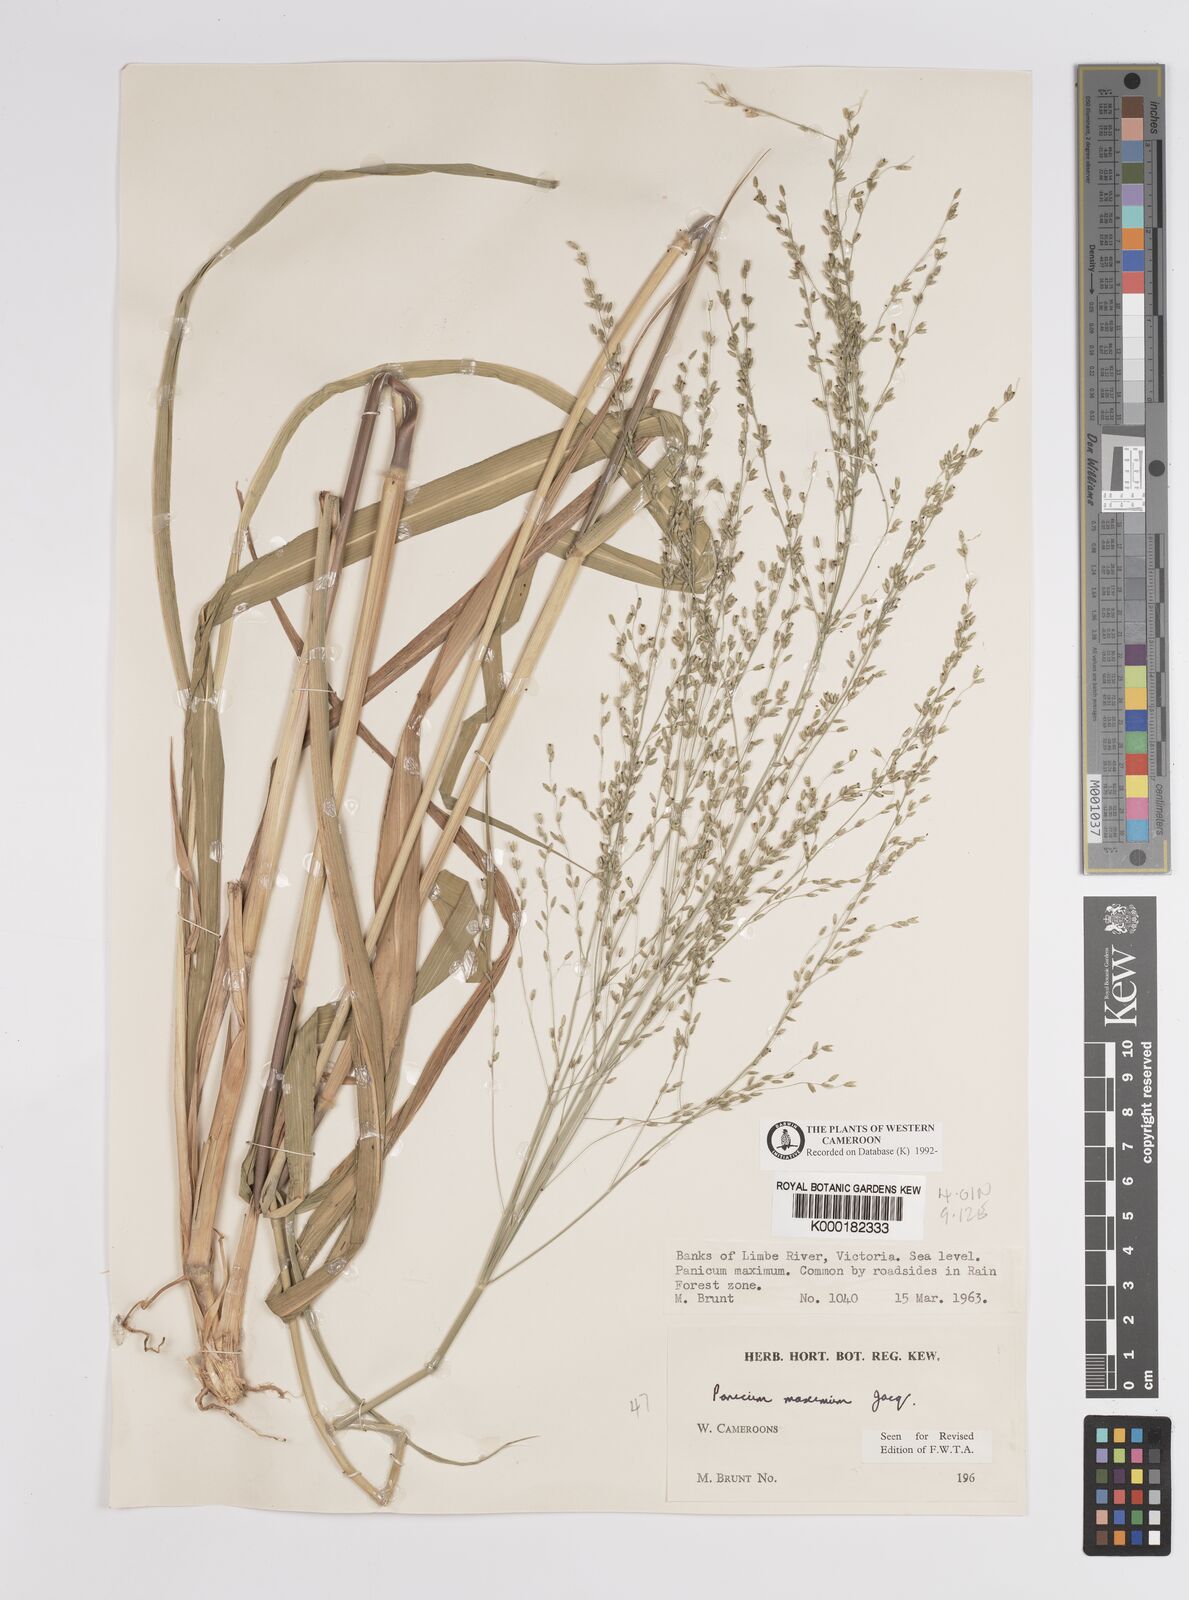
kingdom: Plantae
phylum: Tracheophyta
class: Liliopsida
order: Poales
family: Poaceae
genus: Megathyrsus
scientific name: Megathyrsus maximus
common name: Guineagrass
